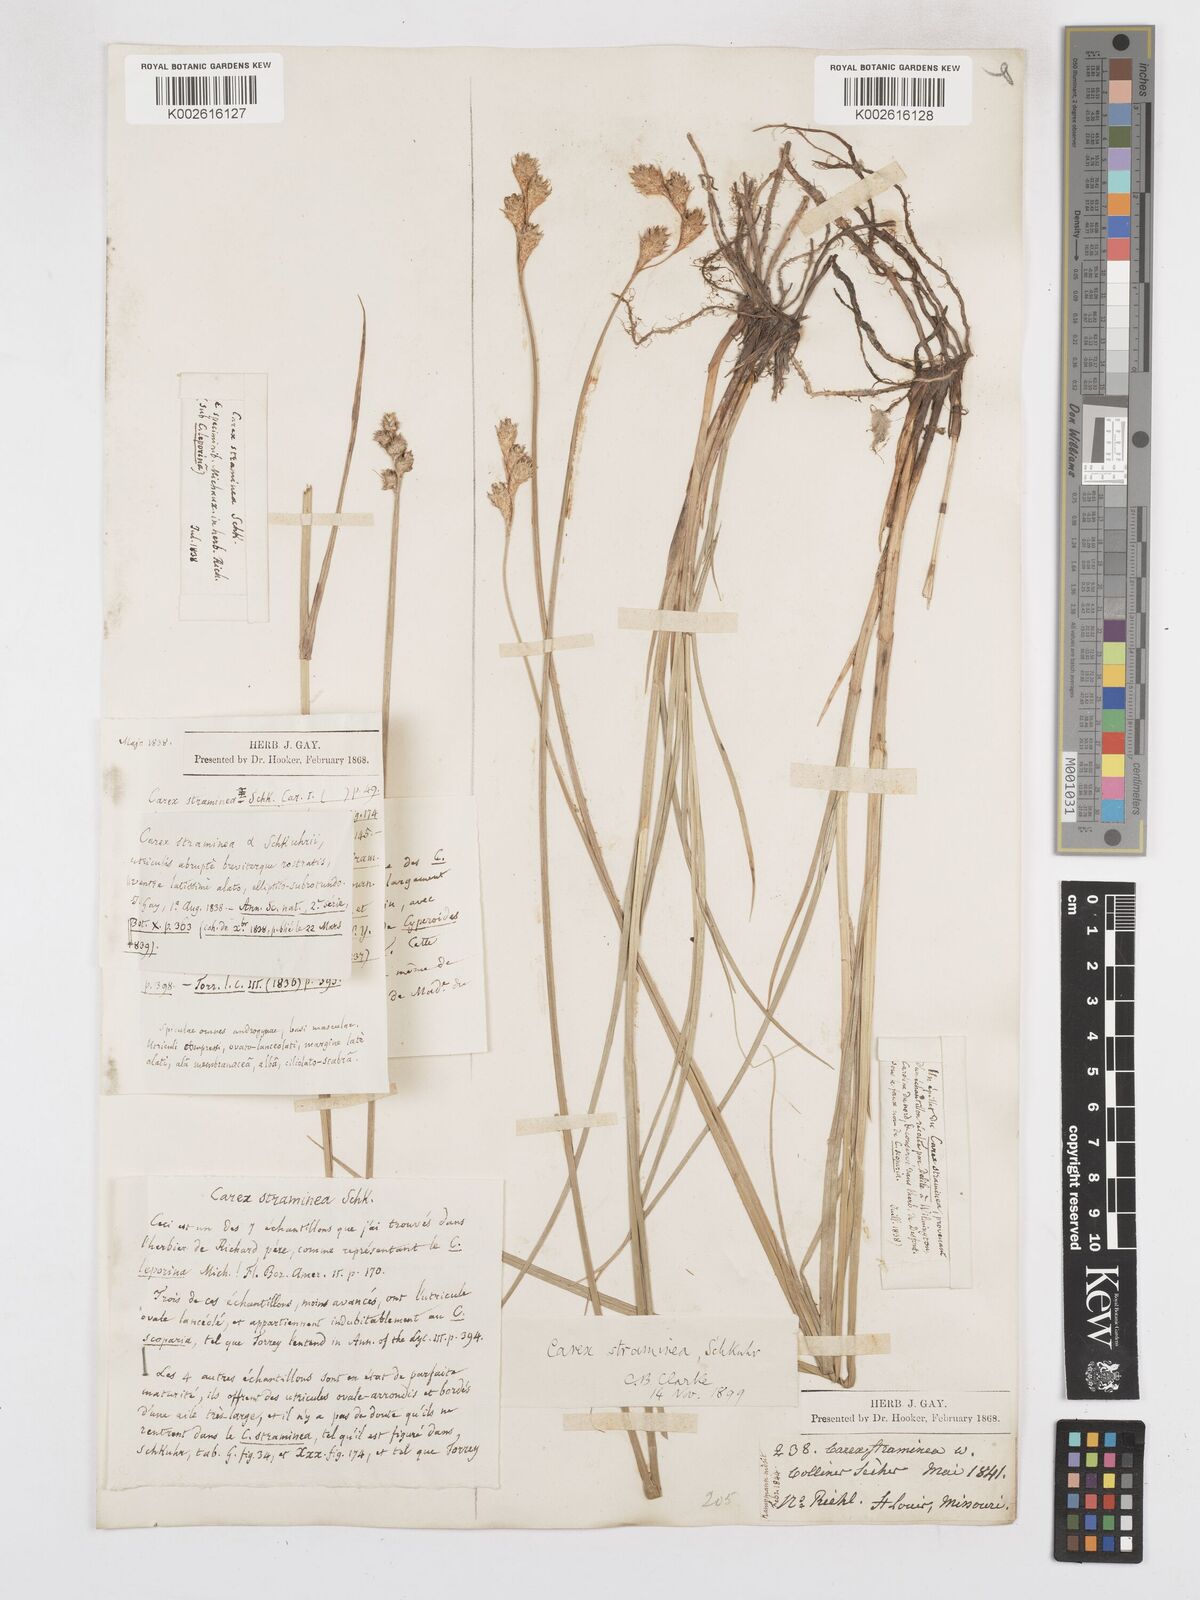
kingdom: Plantae
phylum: Tracheophyta
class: Liliopsida
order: Poales
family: Cyperaceae
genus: Carex
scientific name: Carex brevior
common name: Brevior sedge
